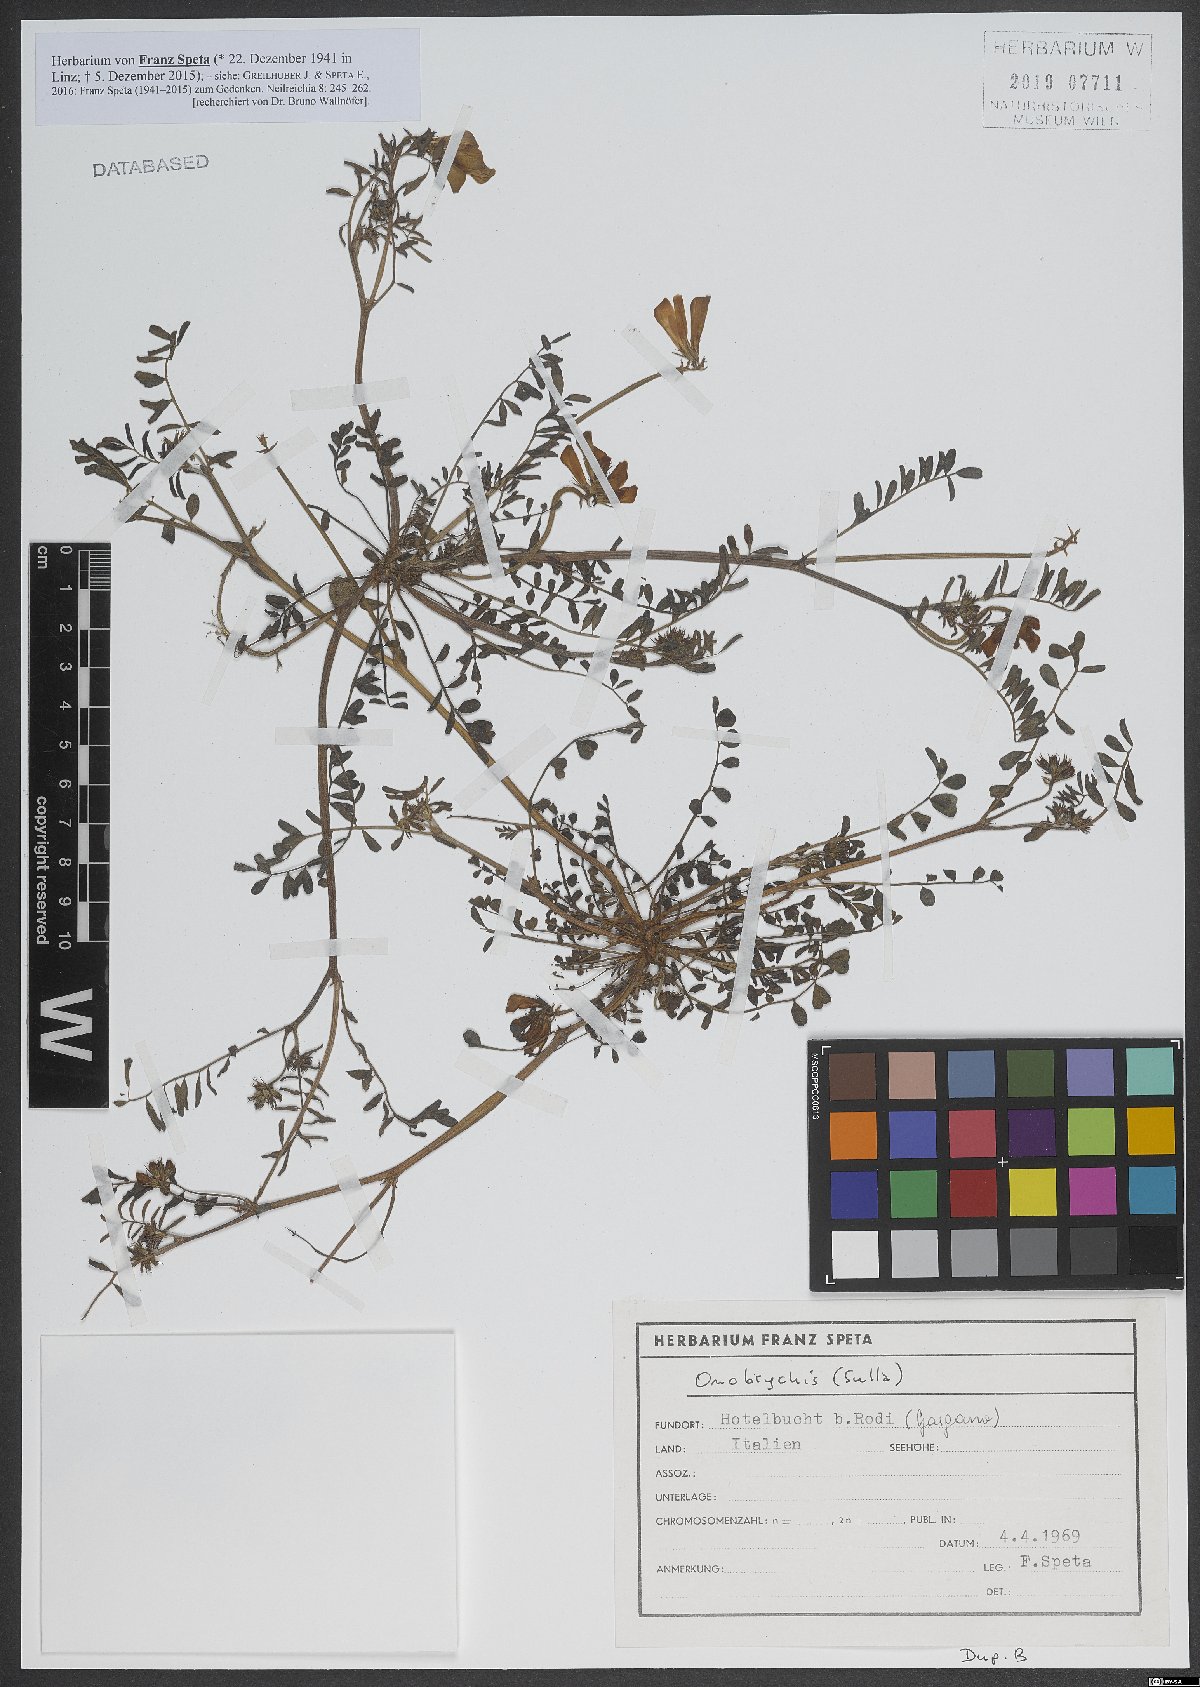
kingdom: Plantae
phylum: Tracheophyta
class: Magnoliopsida
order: Fabales
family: Fabaceae
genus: Onobrychis
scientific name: Onobrychis
